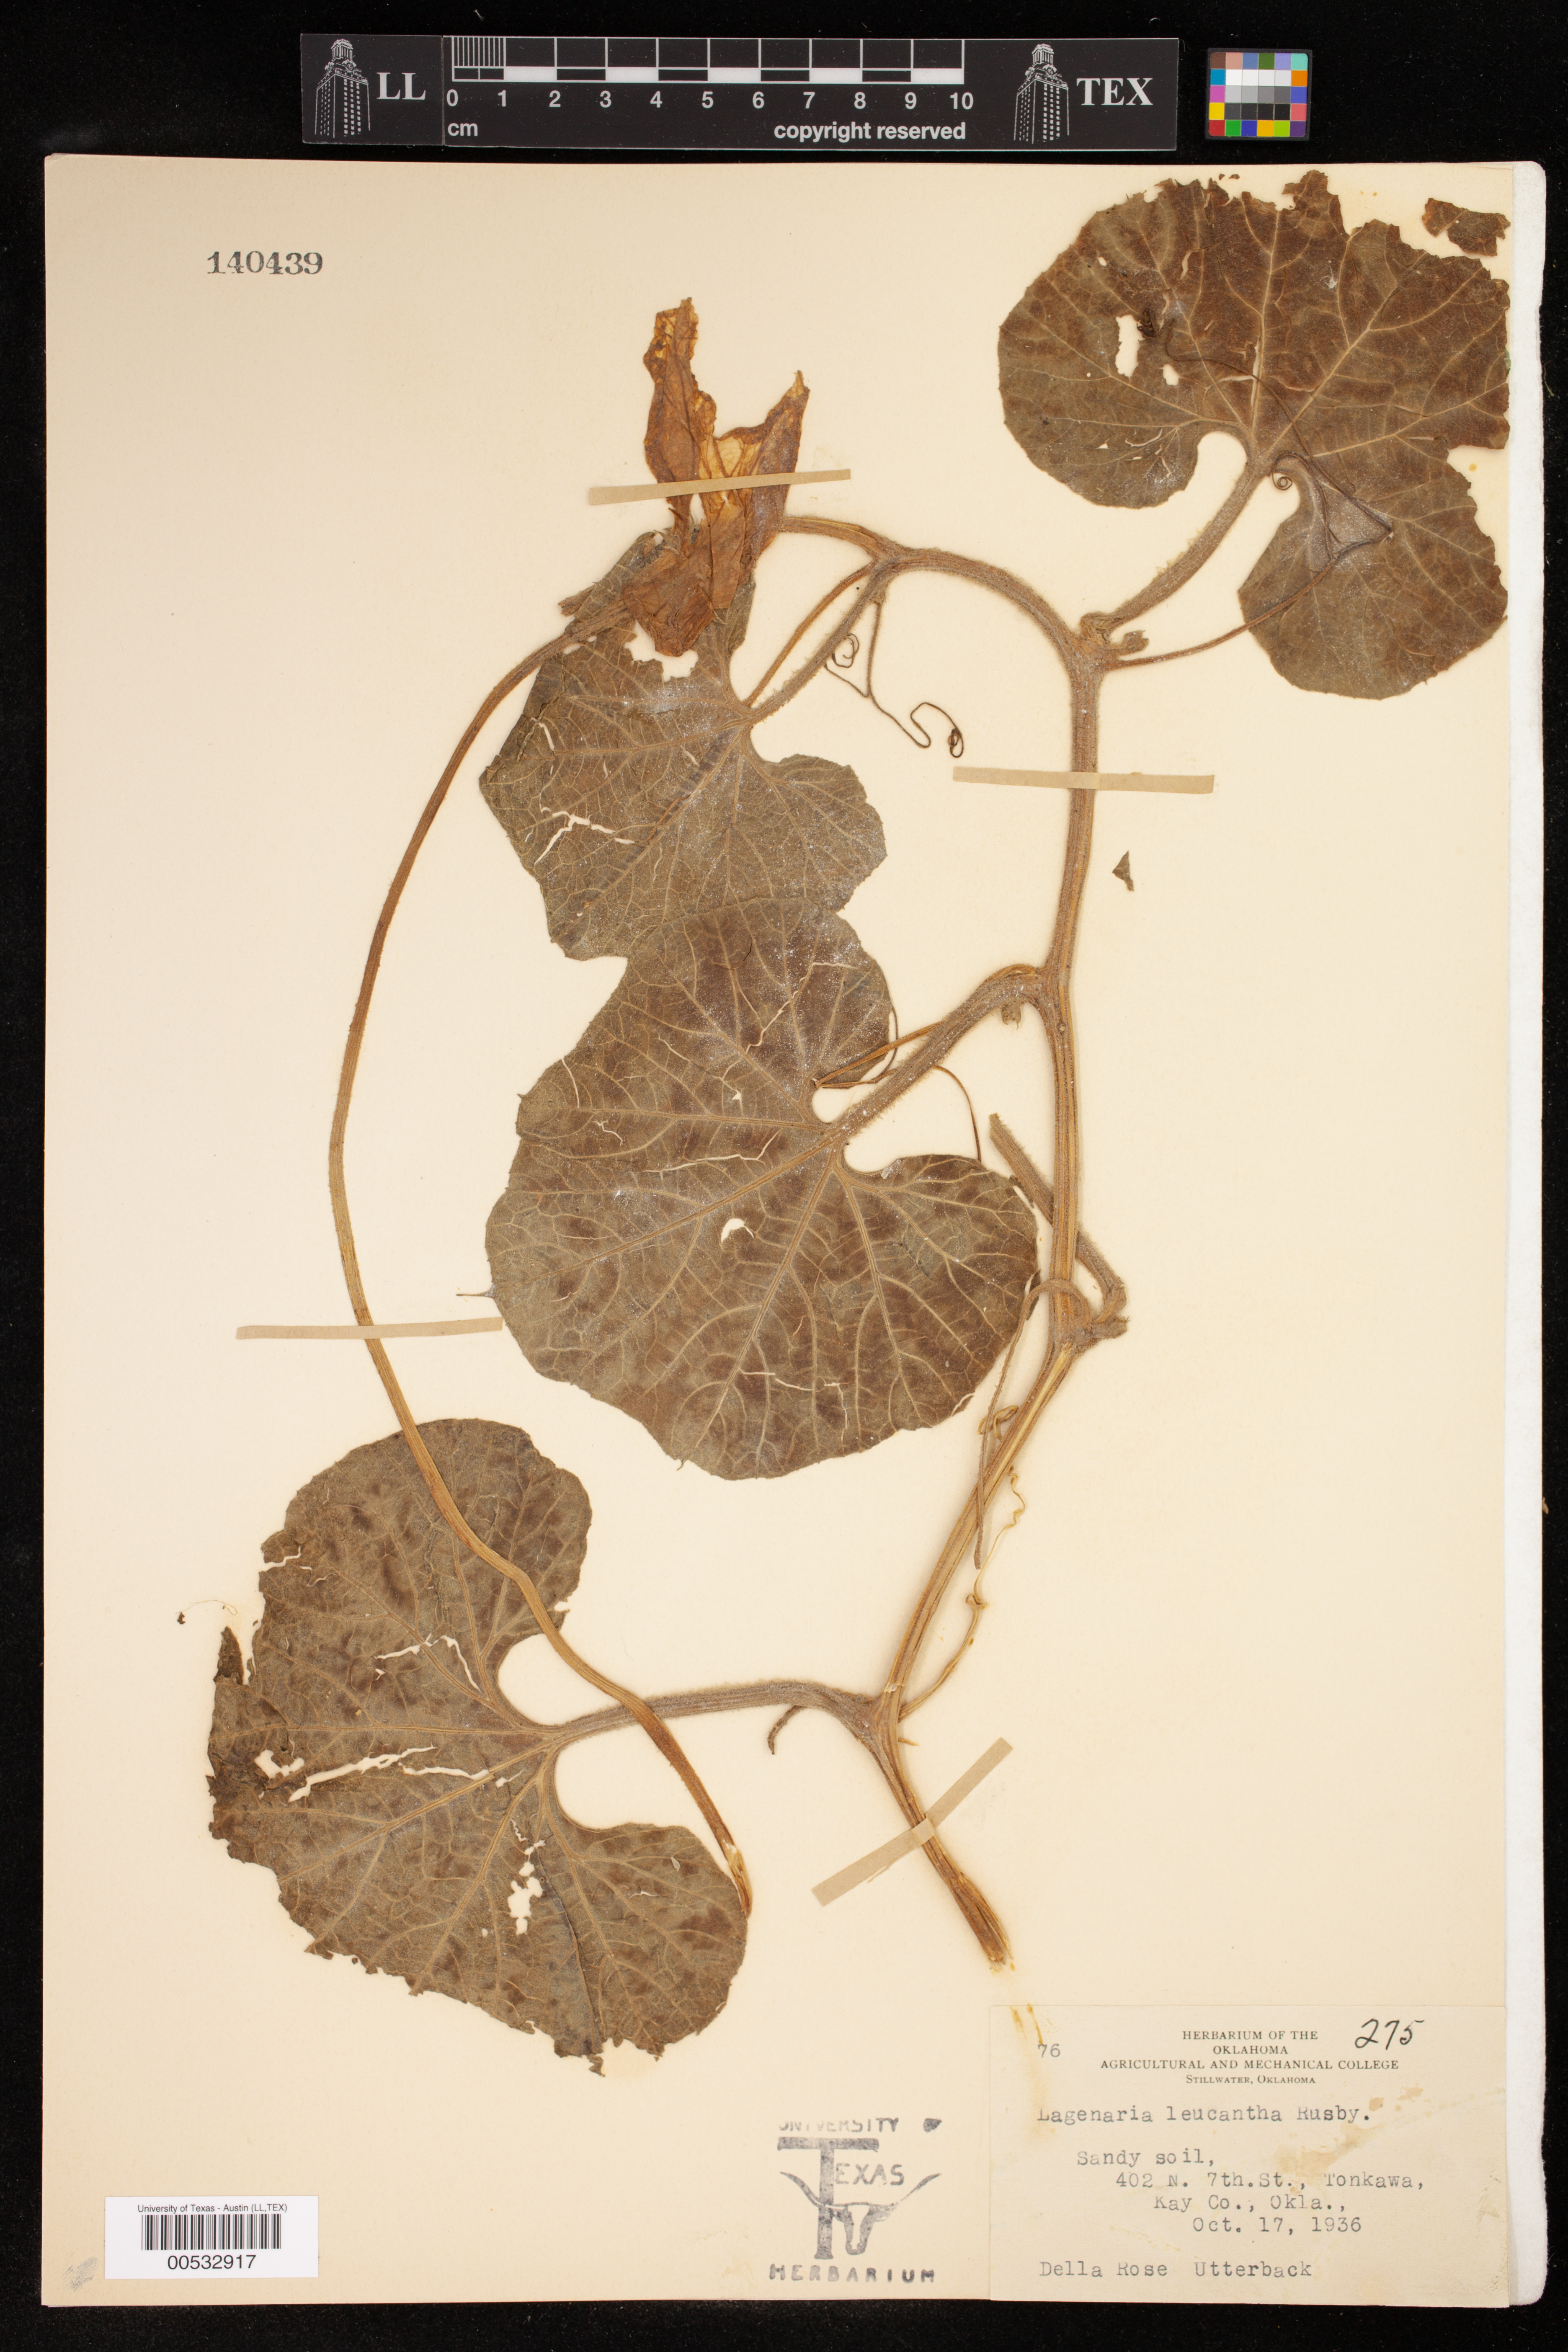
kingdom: Plantae
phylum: Tracheophyta
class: Magnoliopsida
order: Cucurbitales
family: Cucurbitaceae
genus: Lagenaria
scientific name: Lagenaria siceraria
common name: Bottle gourd
